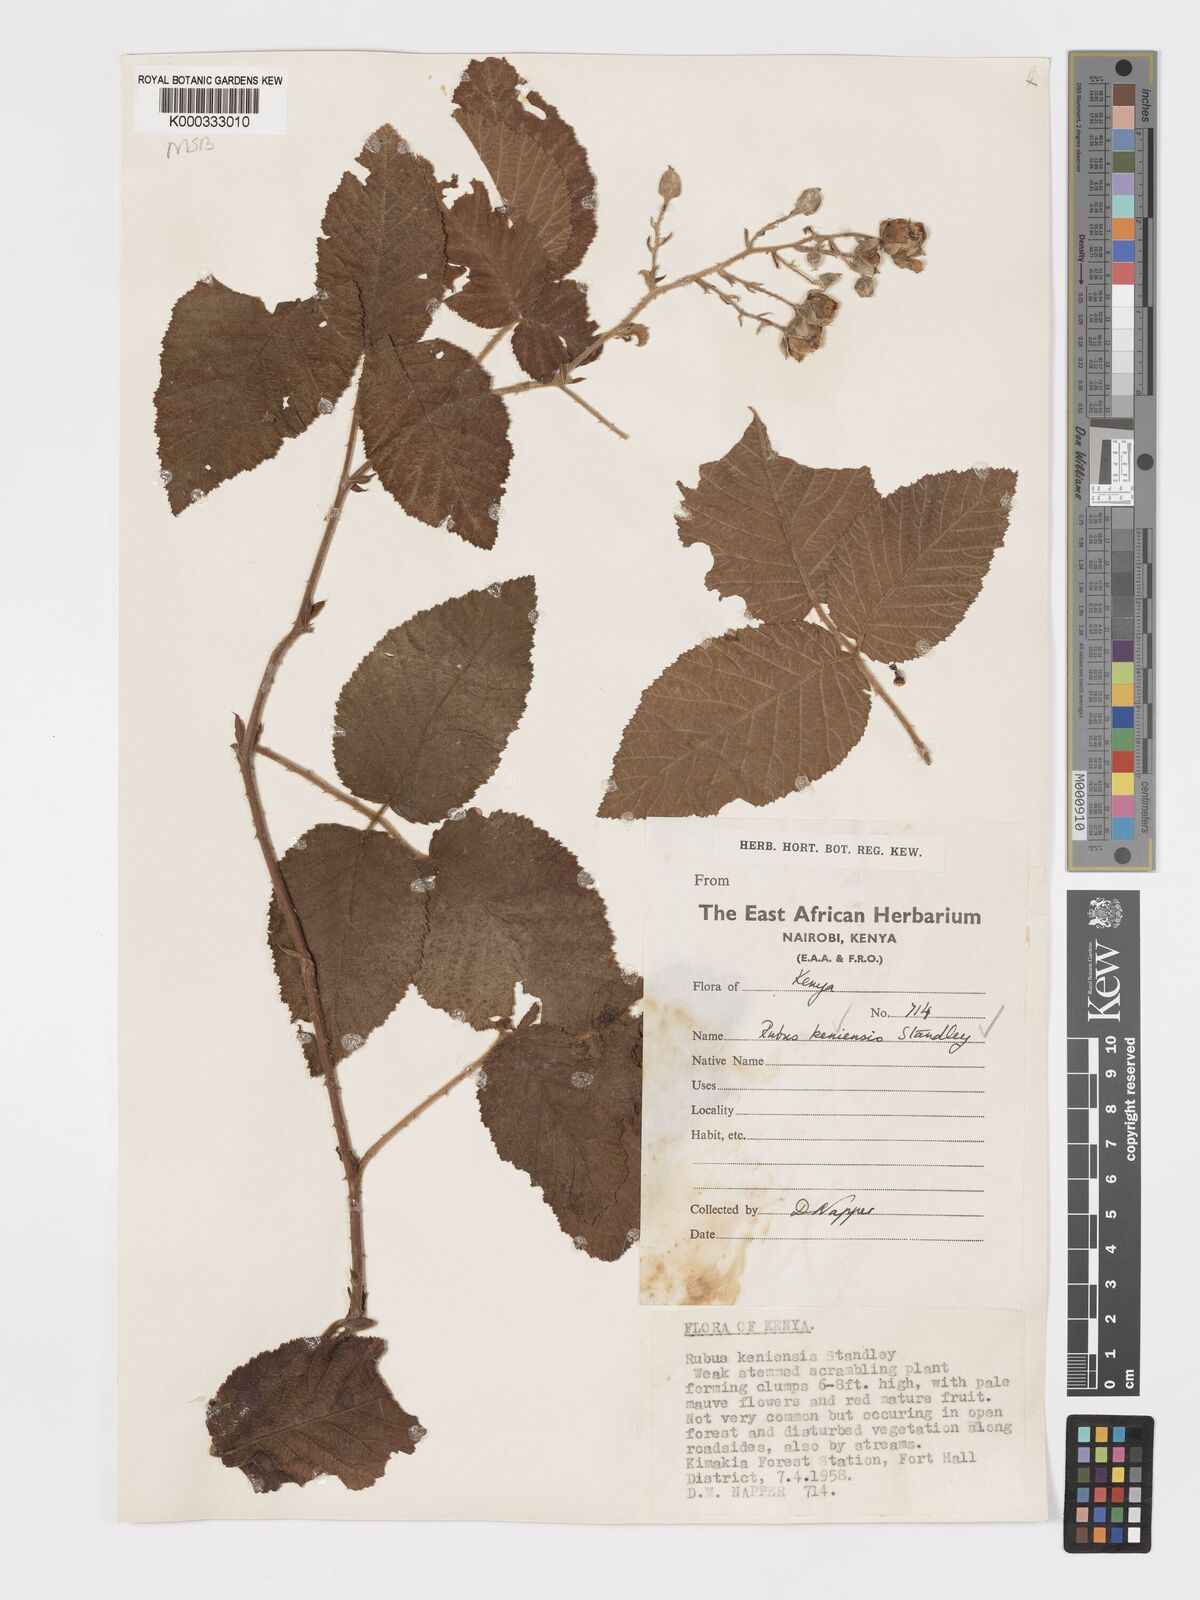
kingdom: Plantae
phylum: Tracheophyta
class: Magnoliopsida
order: Rosales
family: Rosaceae
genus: Rubus
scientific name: Rubus keniensis
